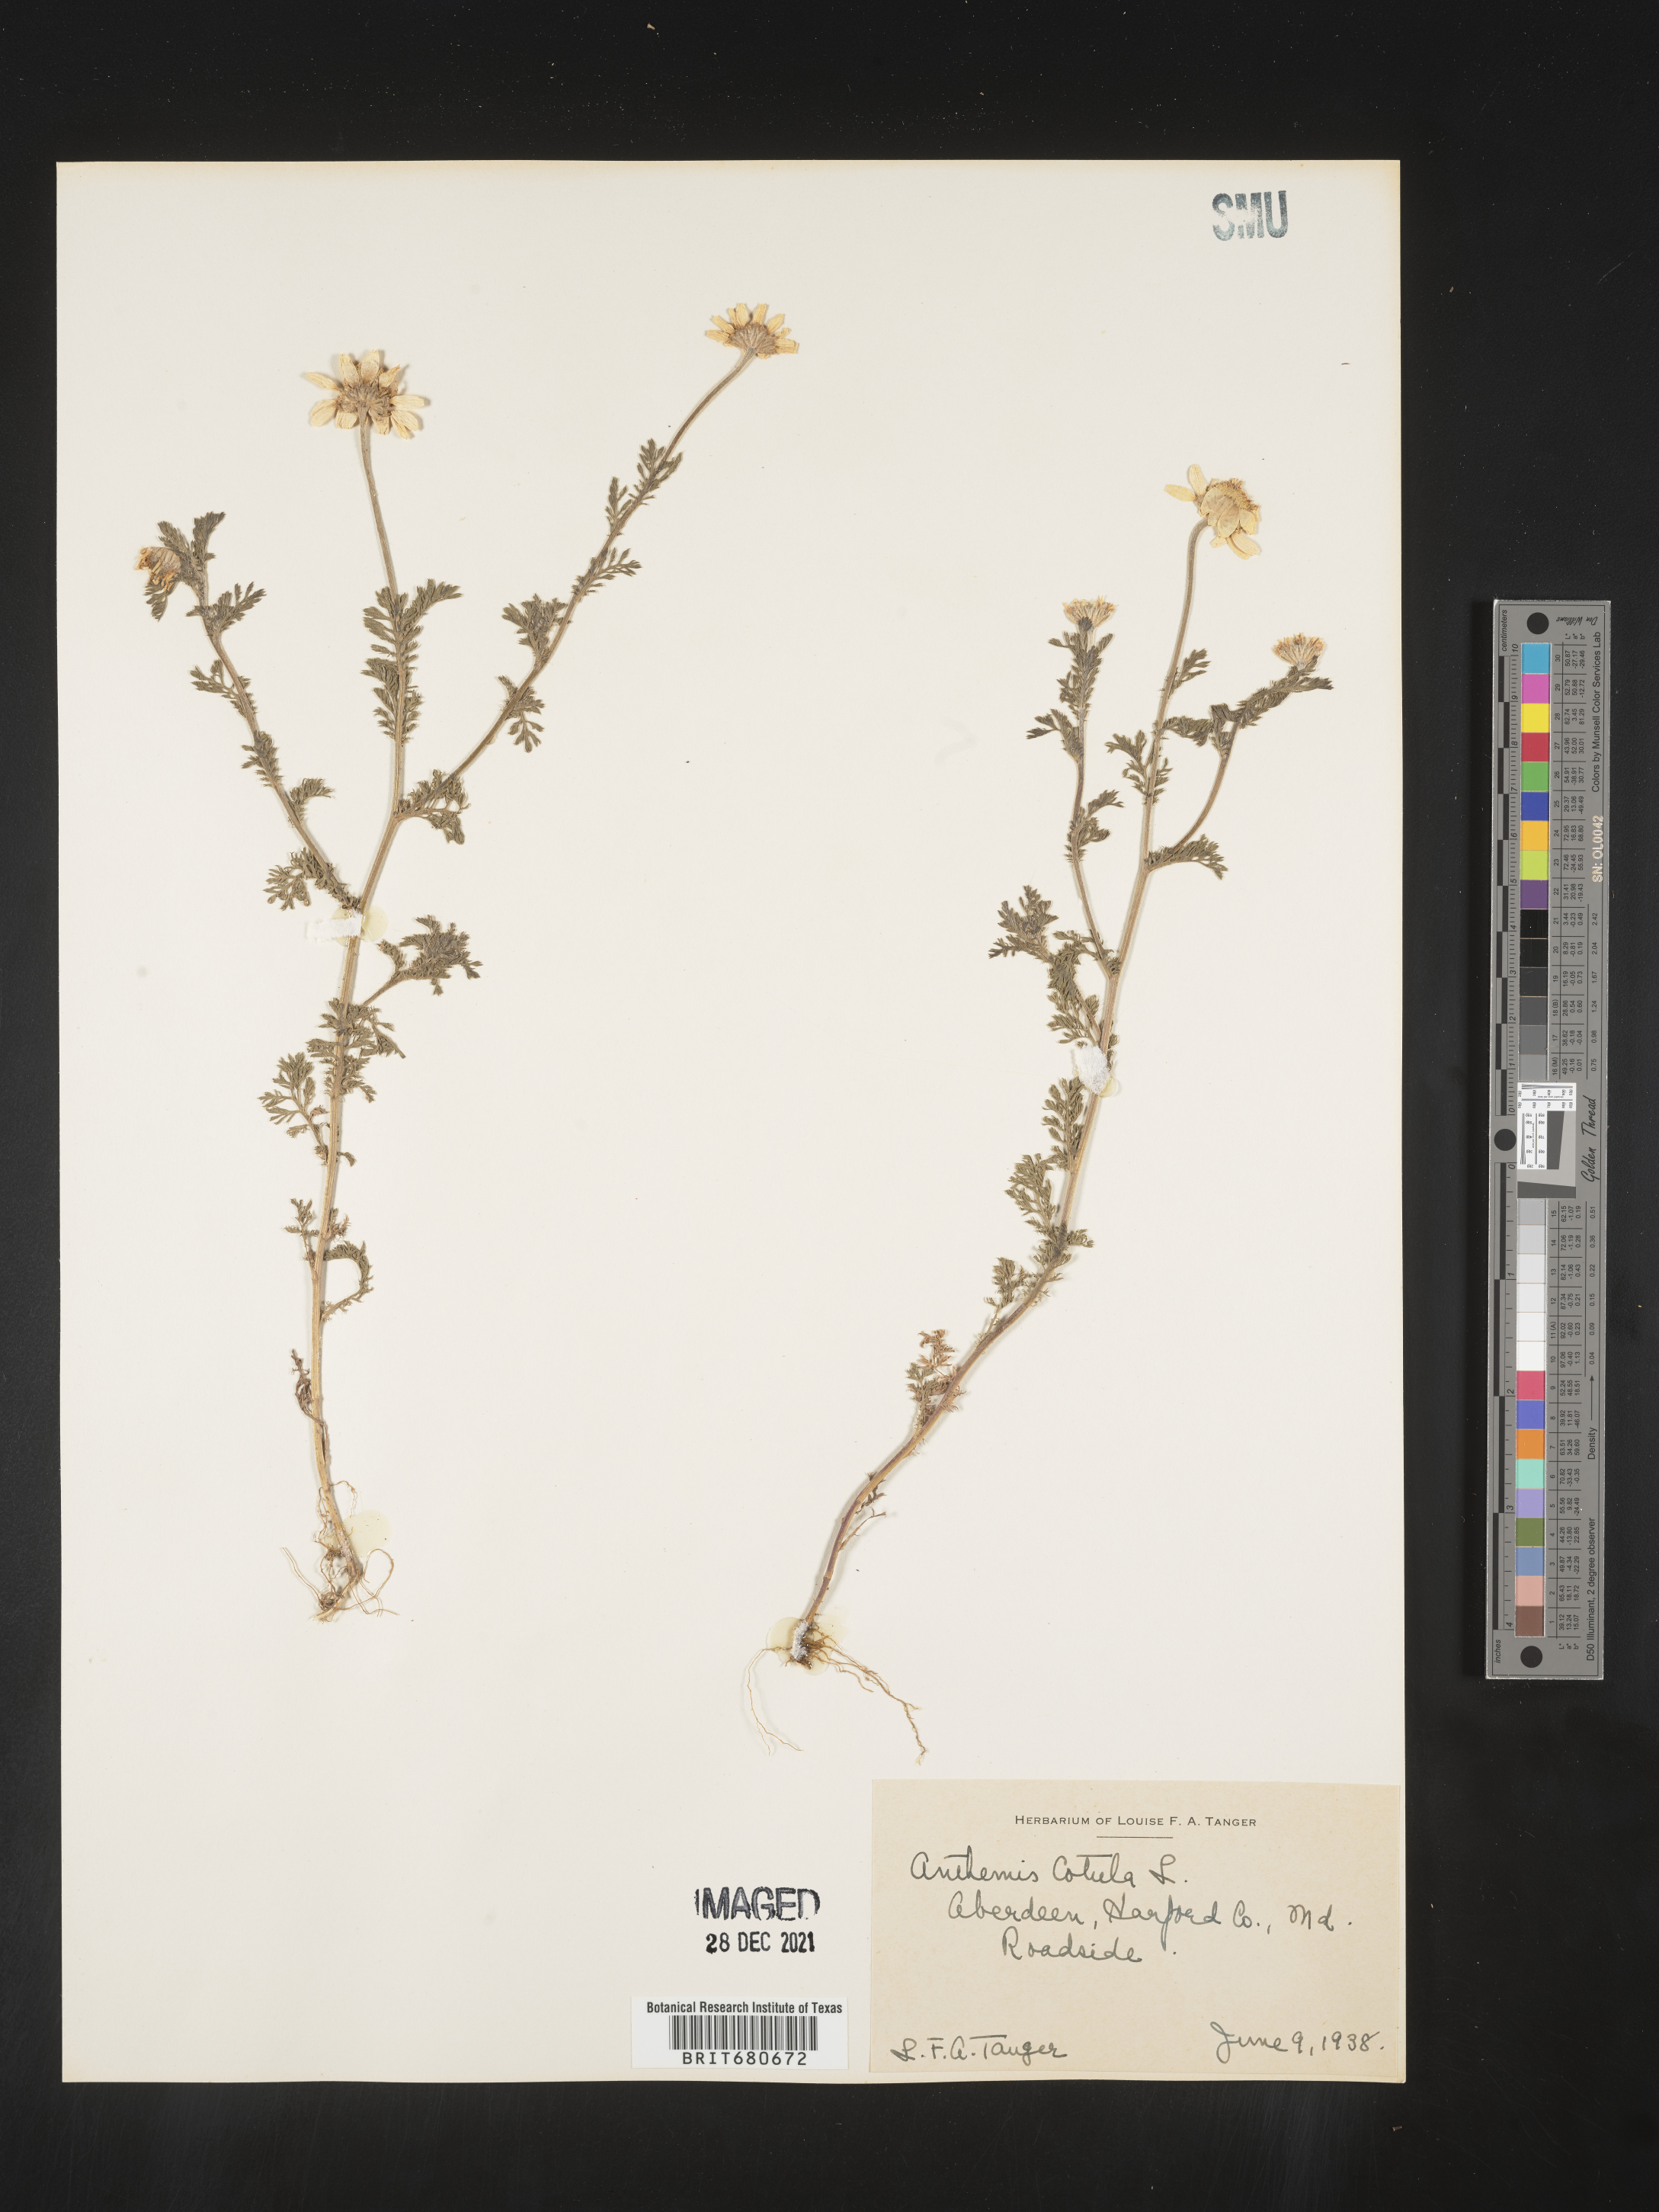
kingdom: Plantae
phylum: Tracheophyta
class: Magnoliopsida
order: Asterales
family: Asteraceae
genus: Anthemis
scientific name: Anthemis cotula
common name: Stinking chamomile
